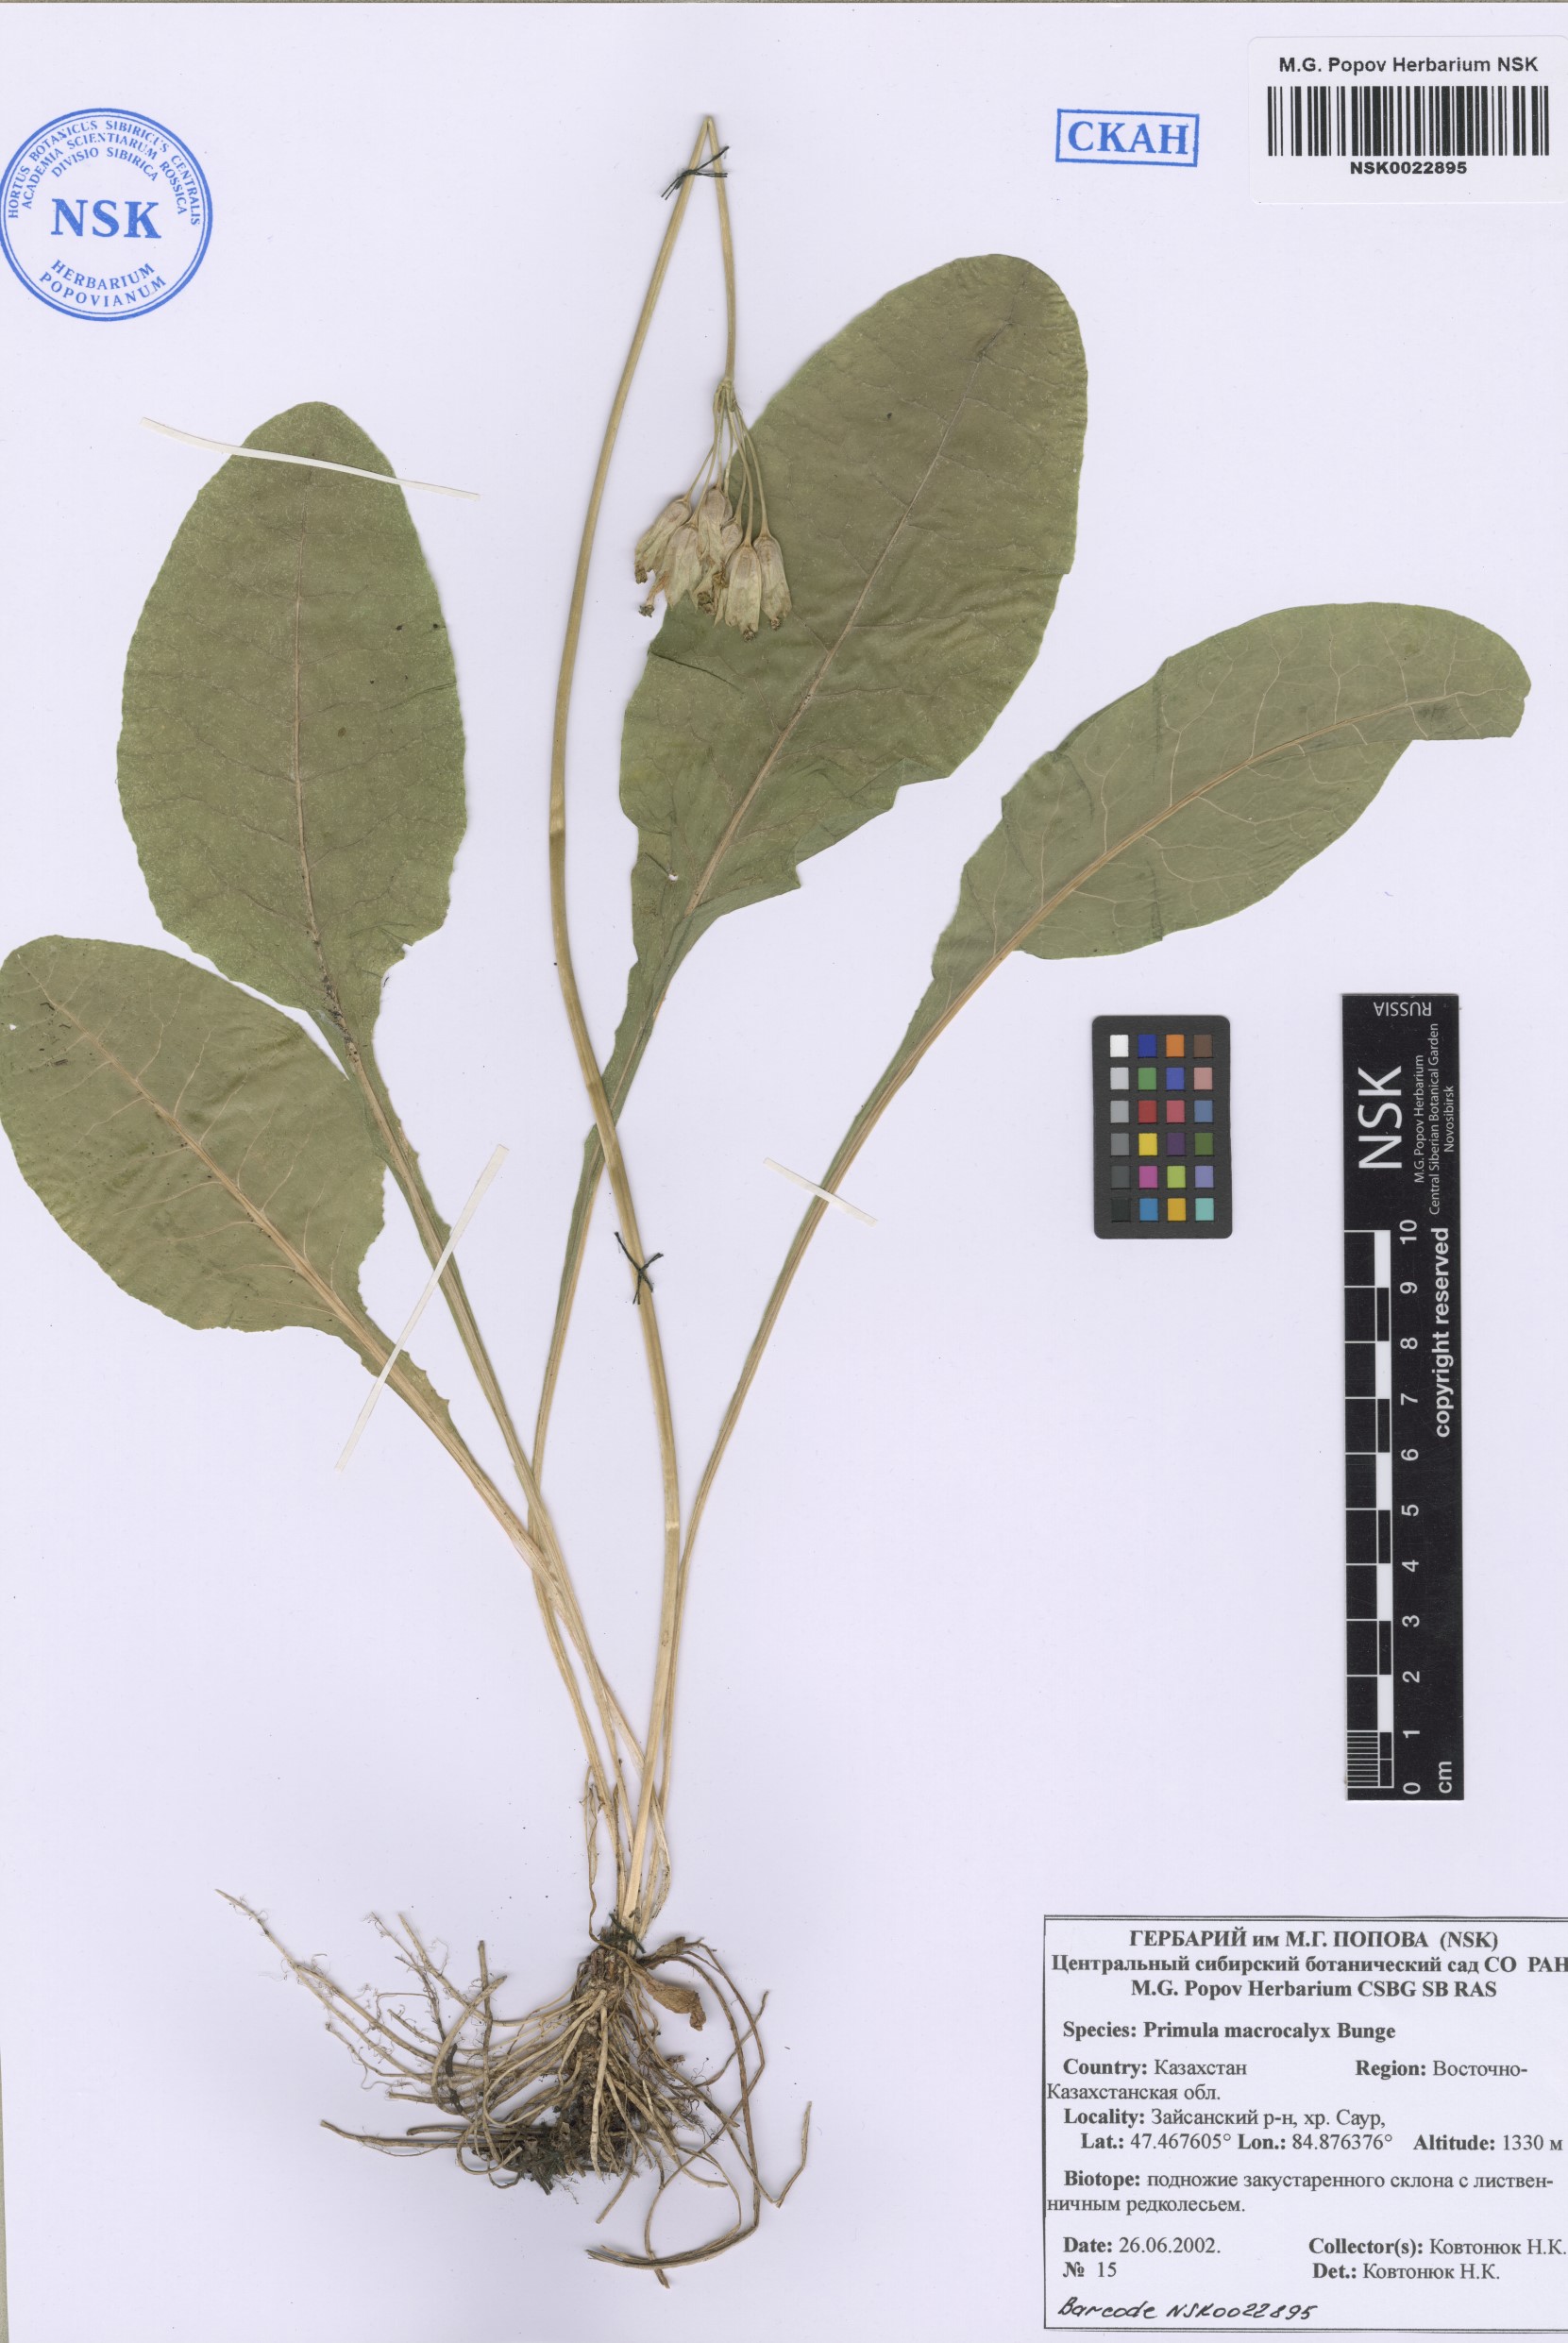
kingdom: Plantae
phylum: Tracheophyta
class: Magnoliopsida
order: Ericales
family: Primulaceae
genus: Primula
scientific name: Primula veris
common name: Cowslip
